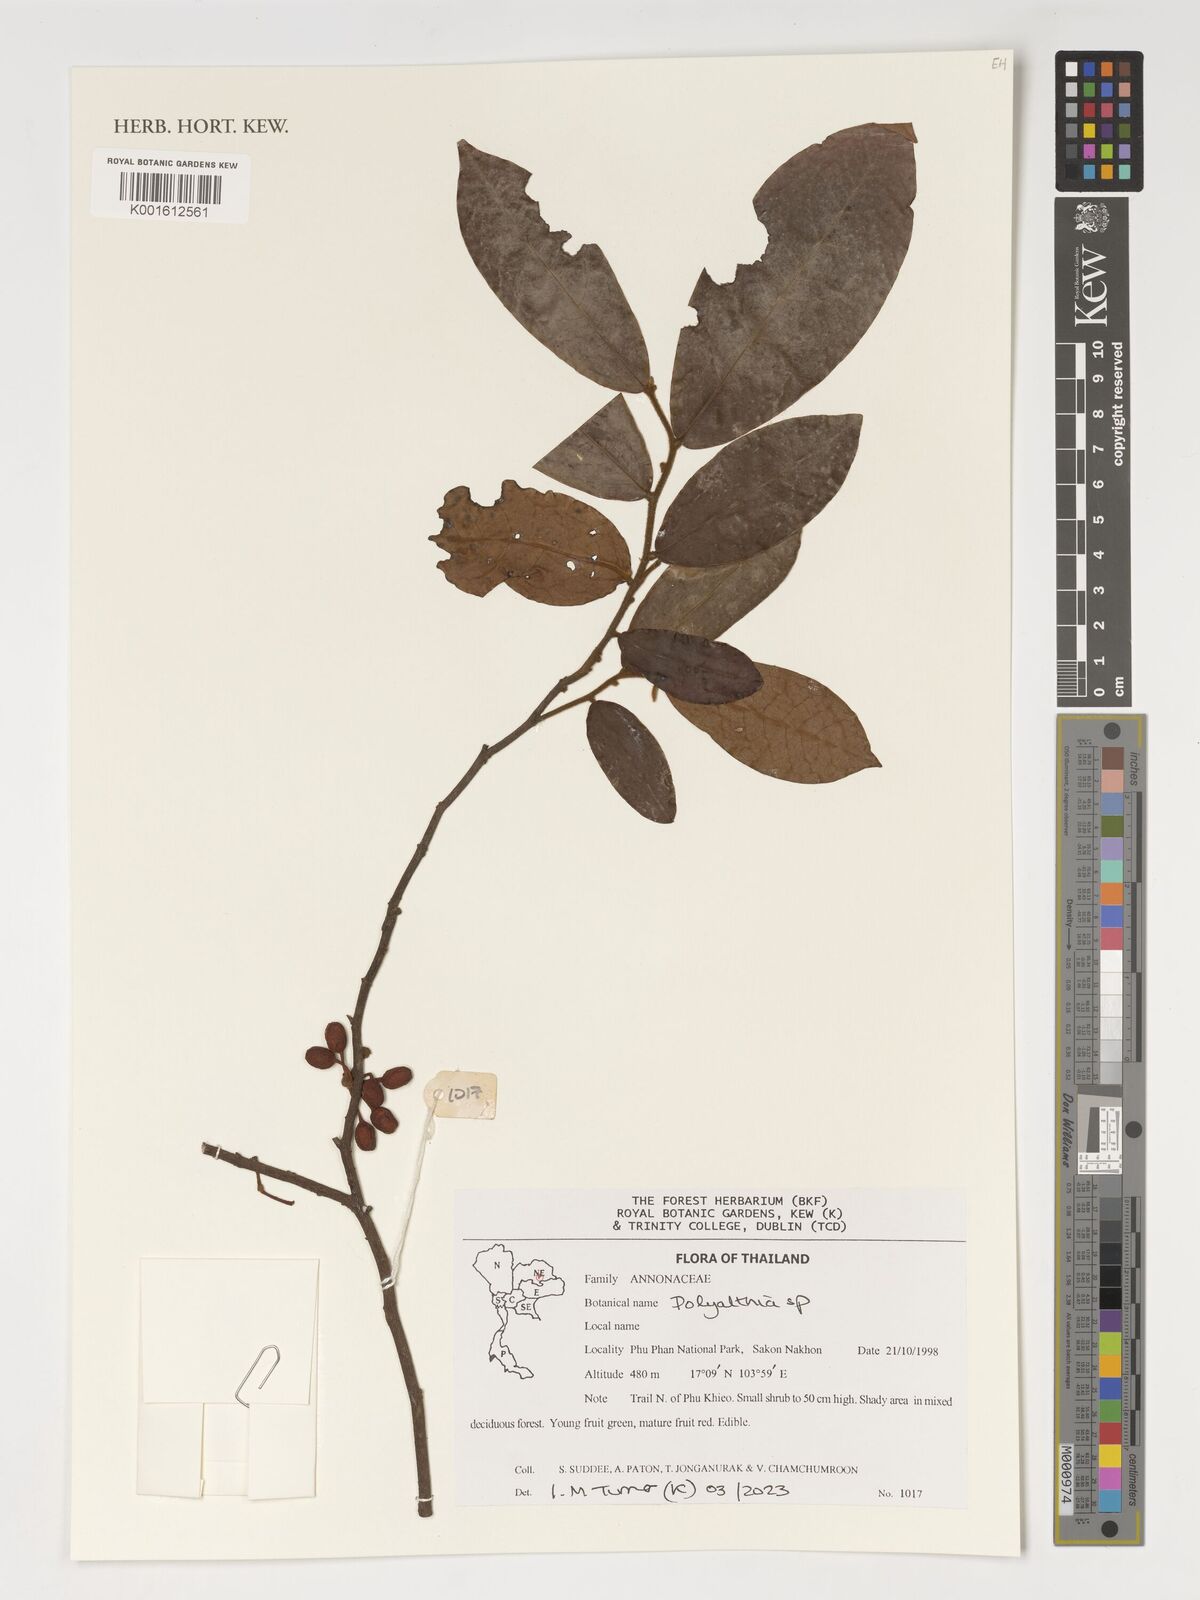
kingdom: Plantae
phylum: Tracheophyta
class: Magnoliopsida
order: Magnoliales
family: Annonaceae
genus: Polyalthia
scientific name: Polyalthia
